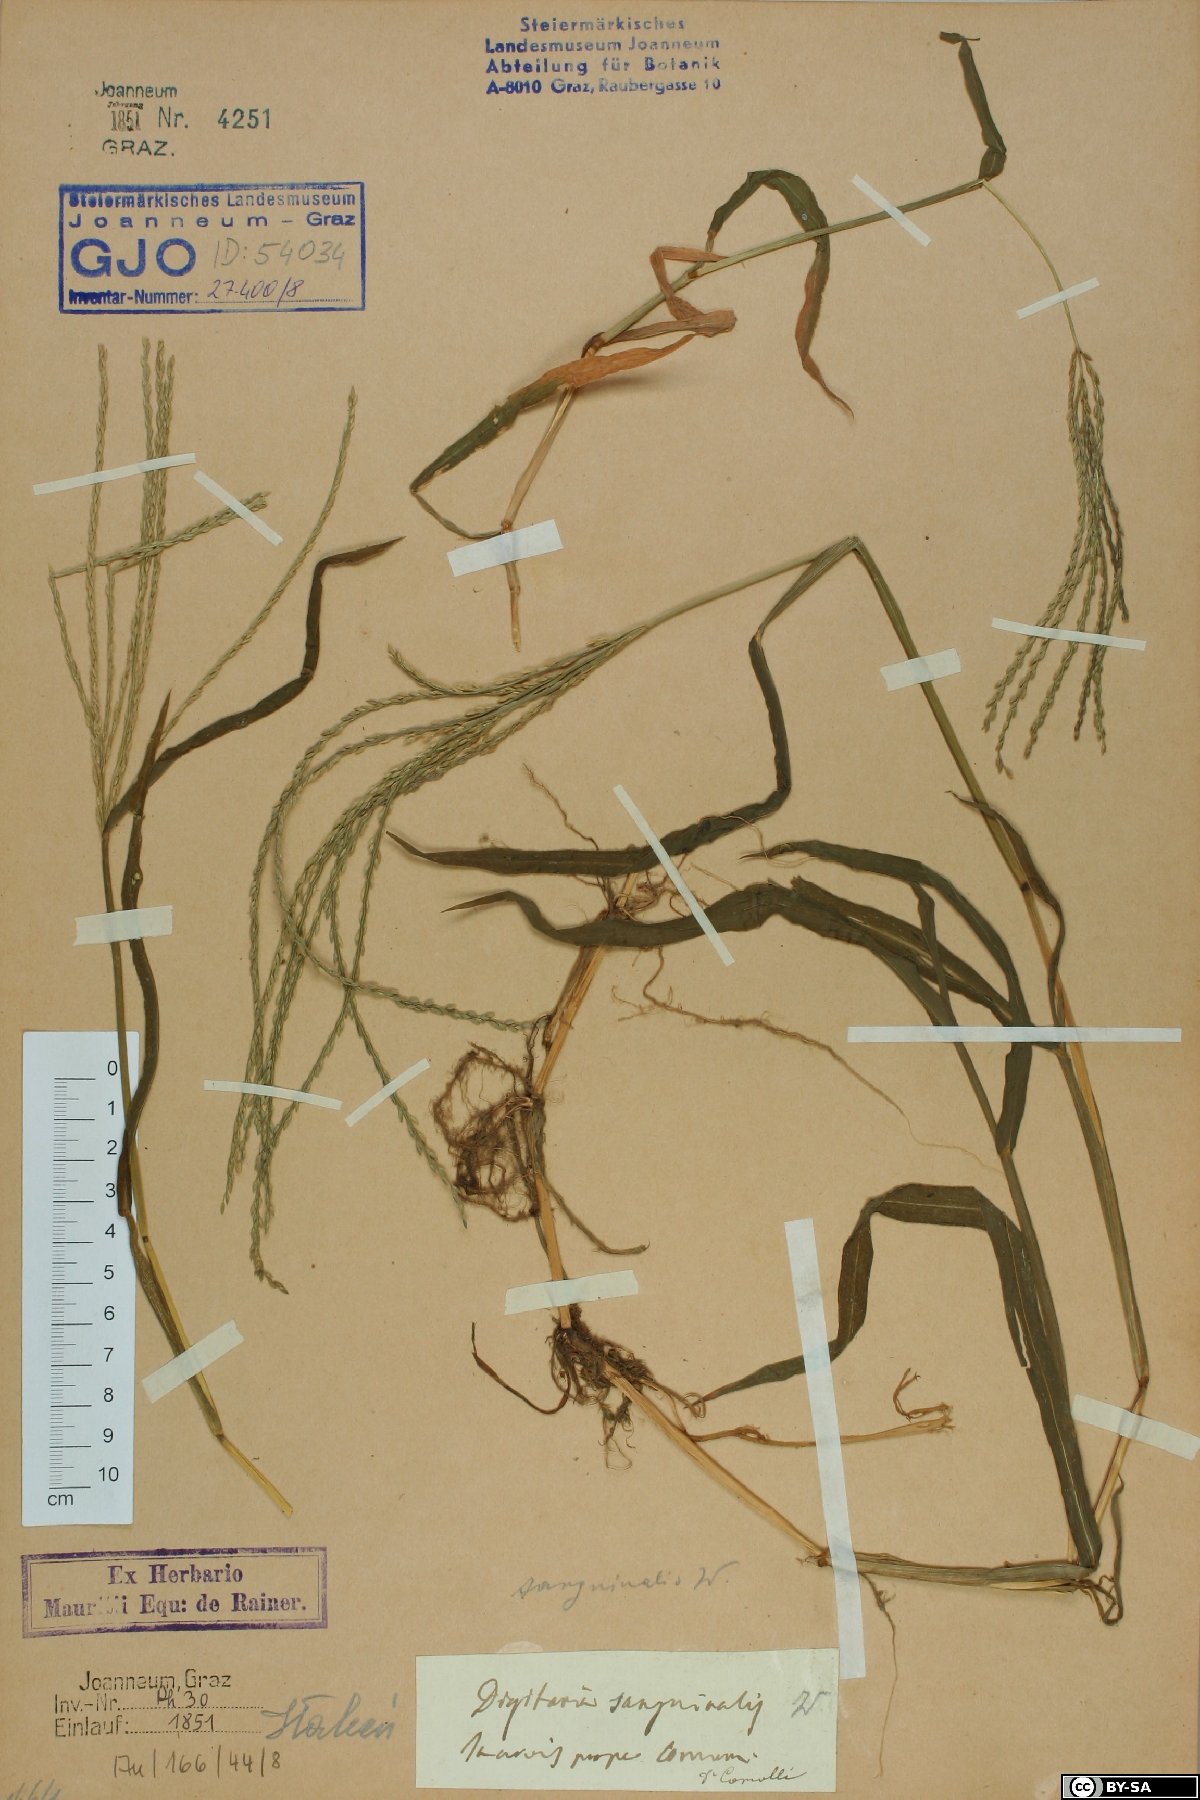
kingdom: Plantae
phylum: Tracheophyta
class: Liliopsida
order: Poales
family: Poaceae
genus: Digitaria
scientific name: Digitaria sanguinalis
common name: Hairy crabgrass
